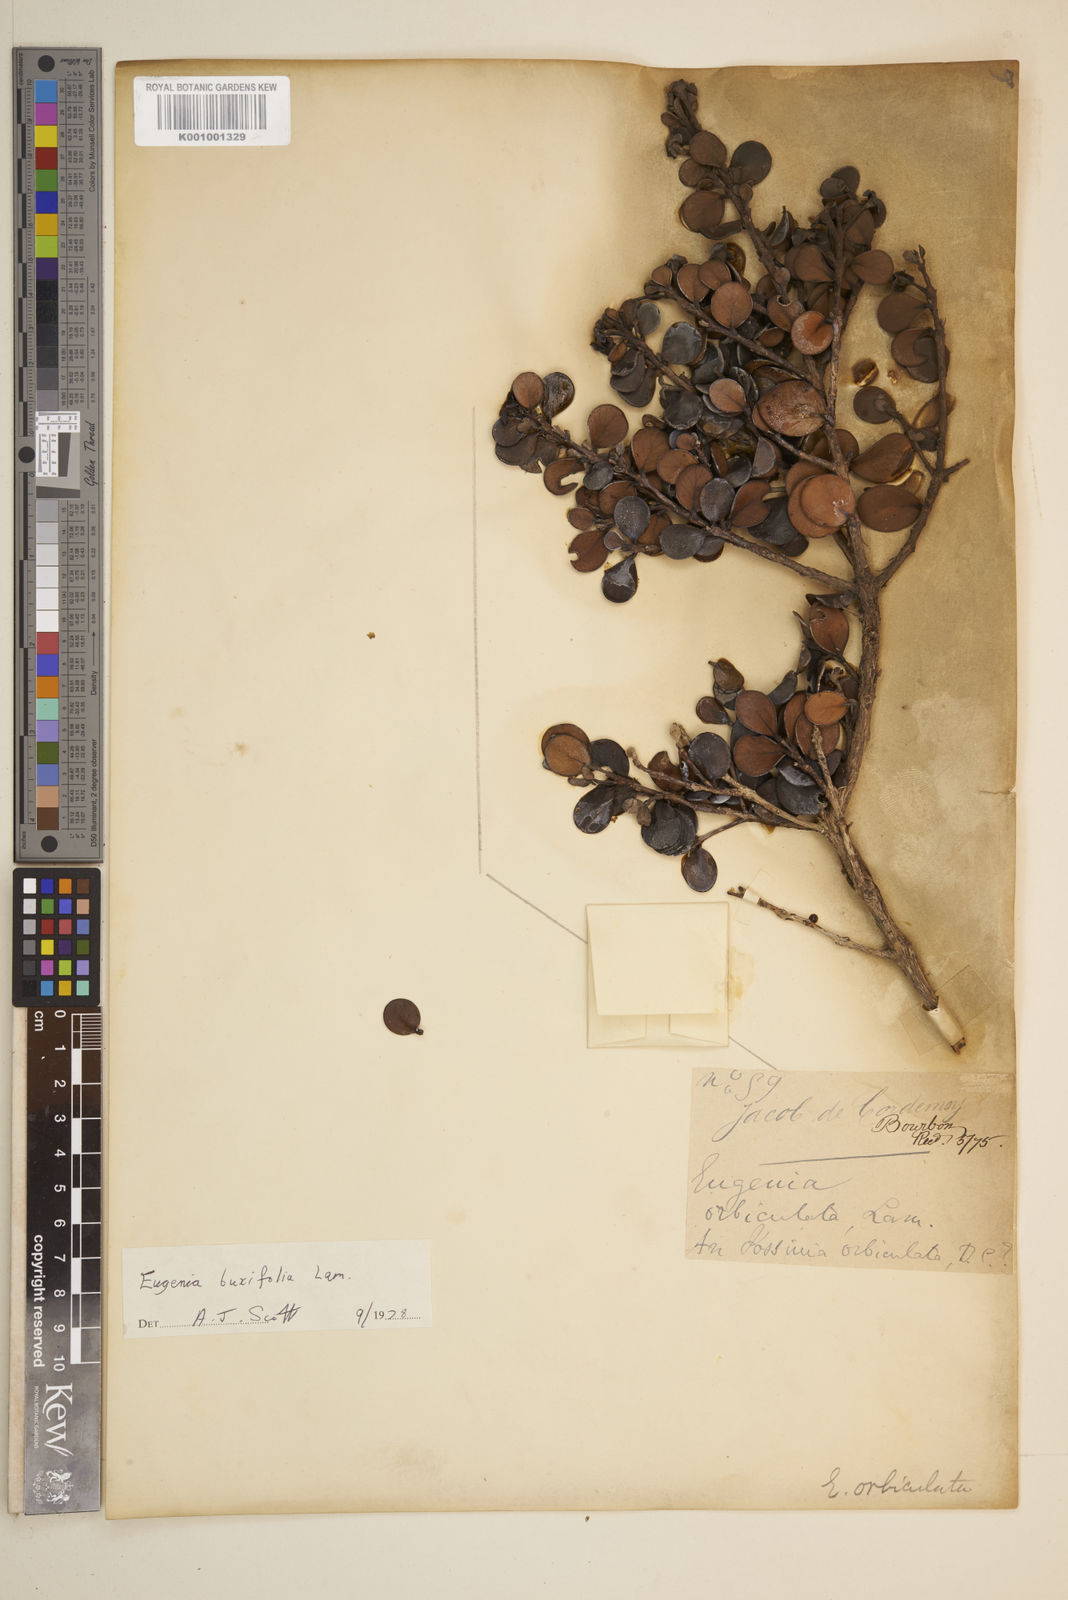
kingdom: Plantae
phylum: Tracheophyta
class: Magnoliopsida
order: Myrtales
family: Myrtaceae
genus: Eugenia
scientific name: Eugenia buxifolia
